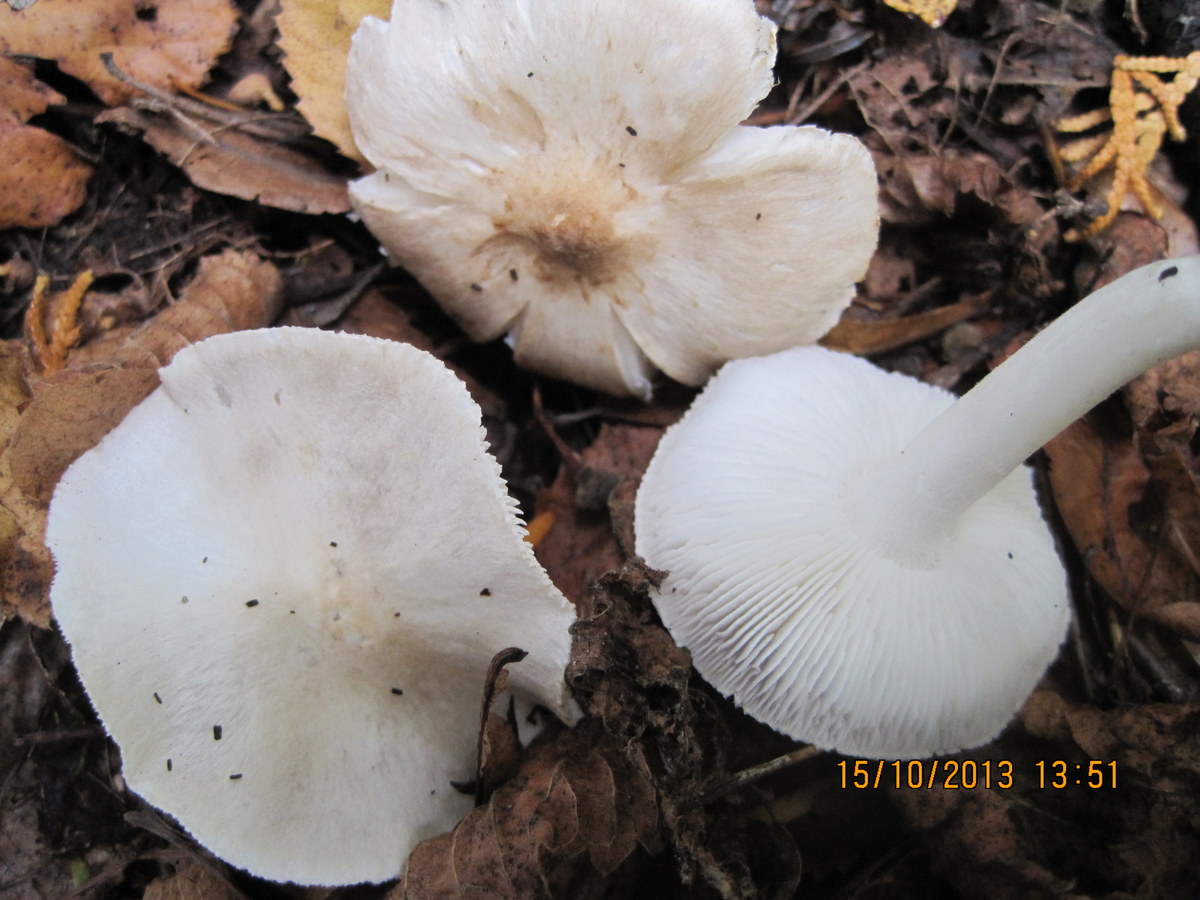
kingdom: Fungi
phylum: Basidiomycota
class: Agaricomycetes
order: Agaricales
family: Tricholomataceae
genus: Tricholoma
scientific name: Tricholoma argyraceum
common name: spids ridderhat
